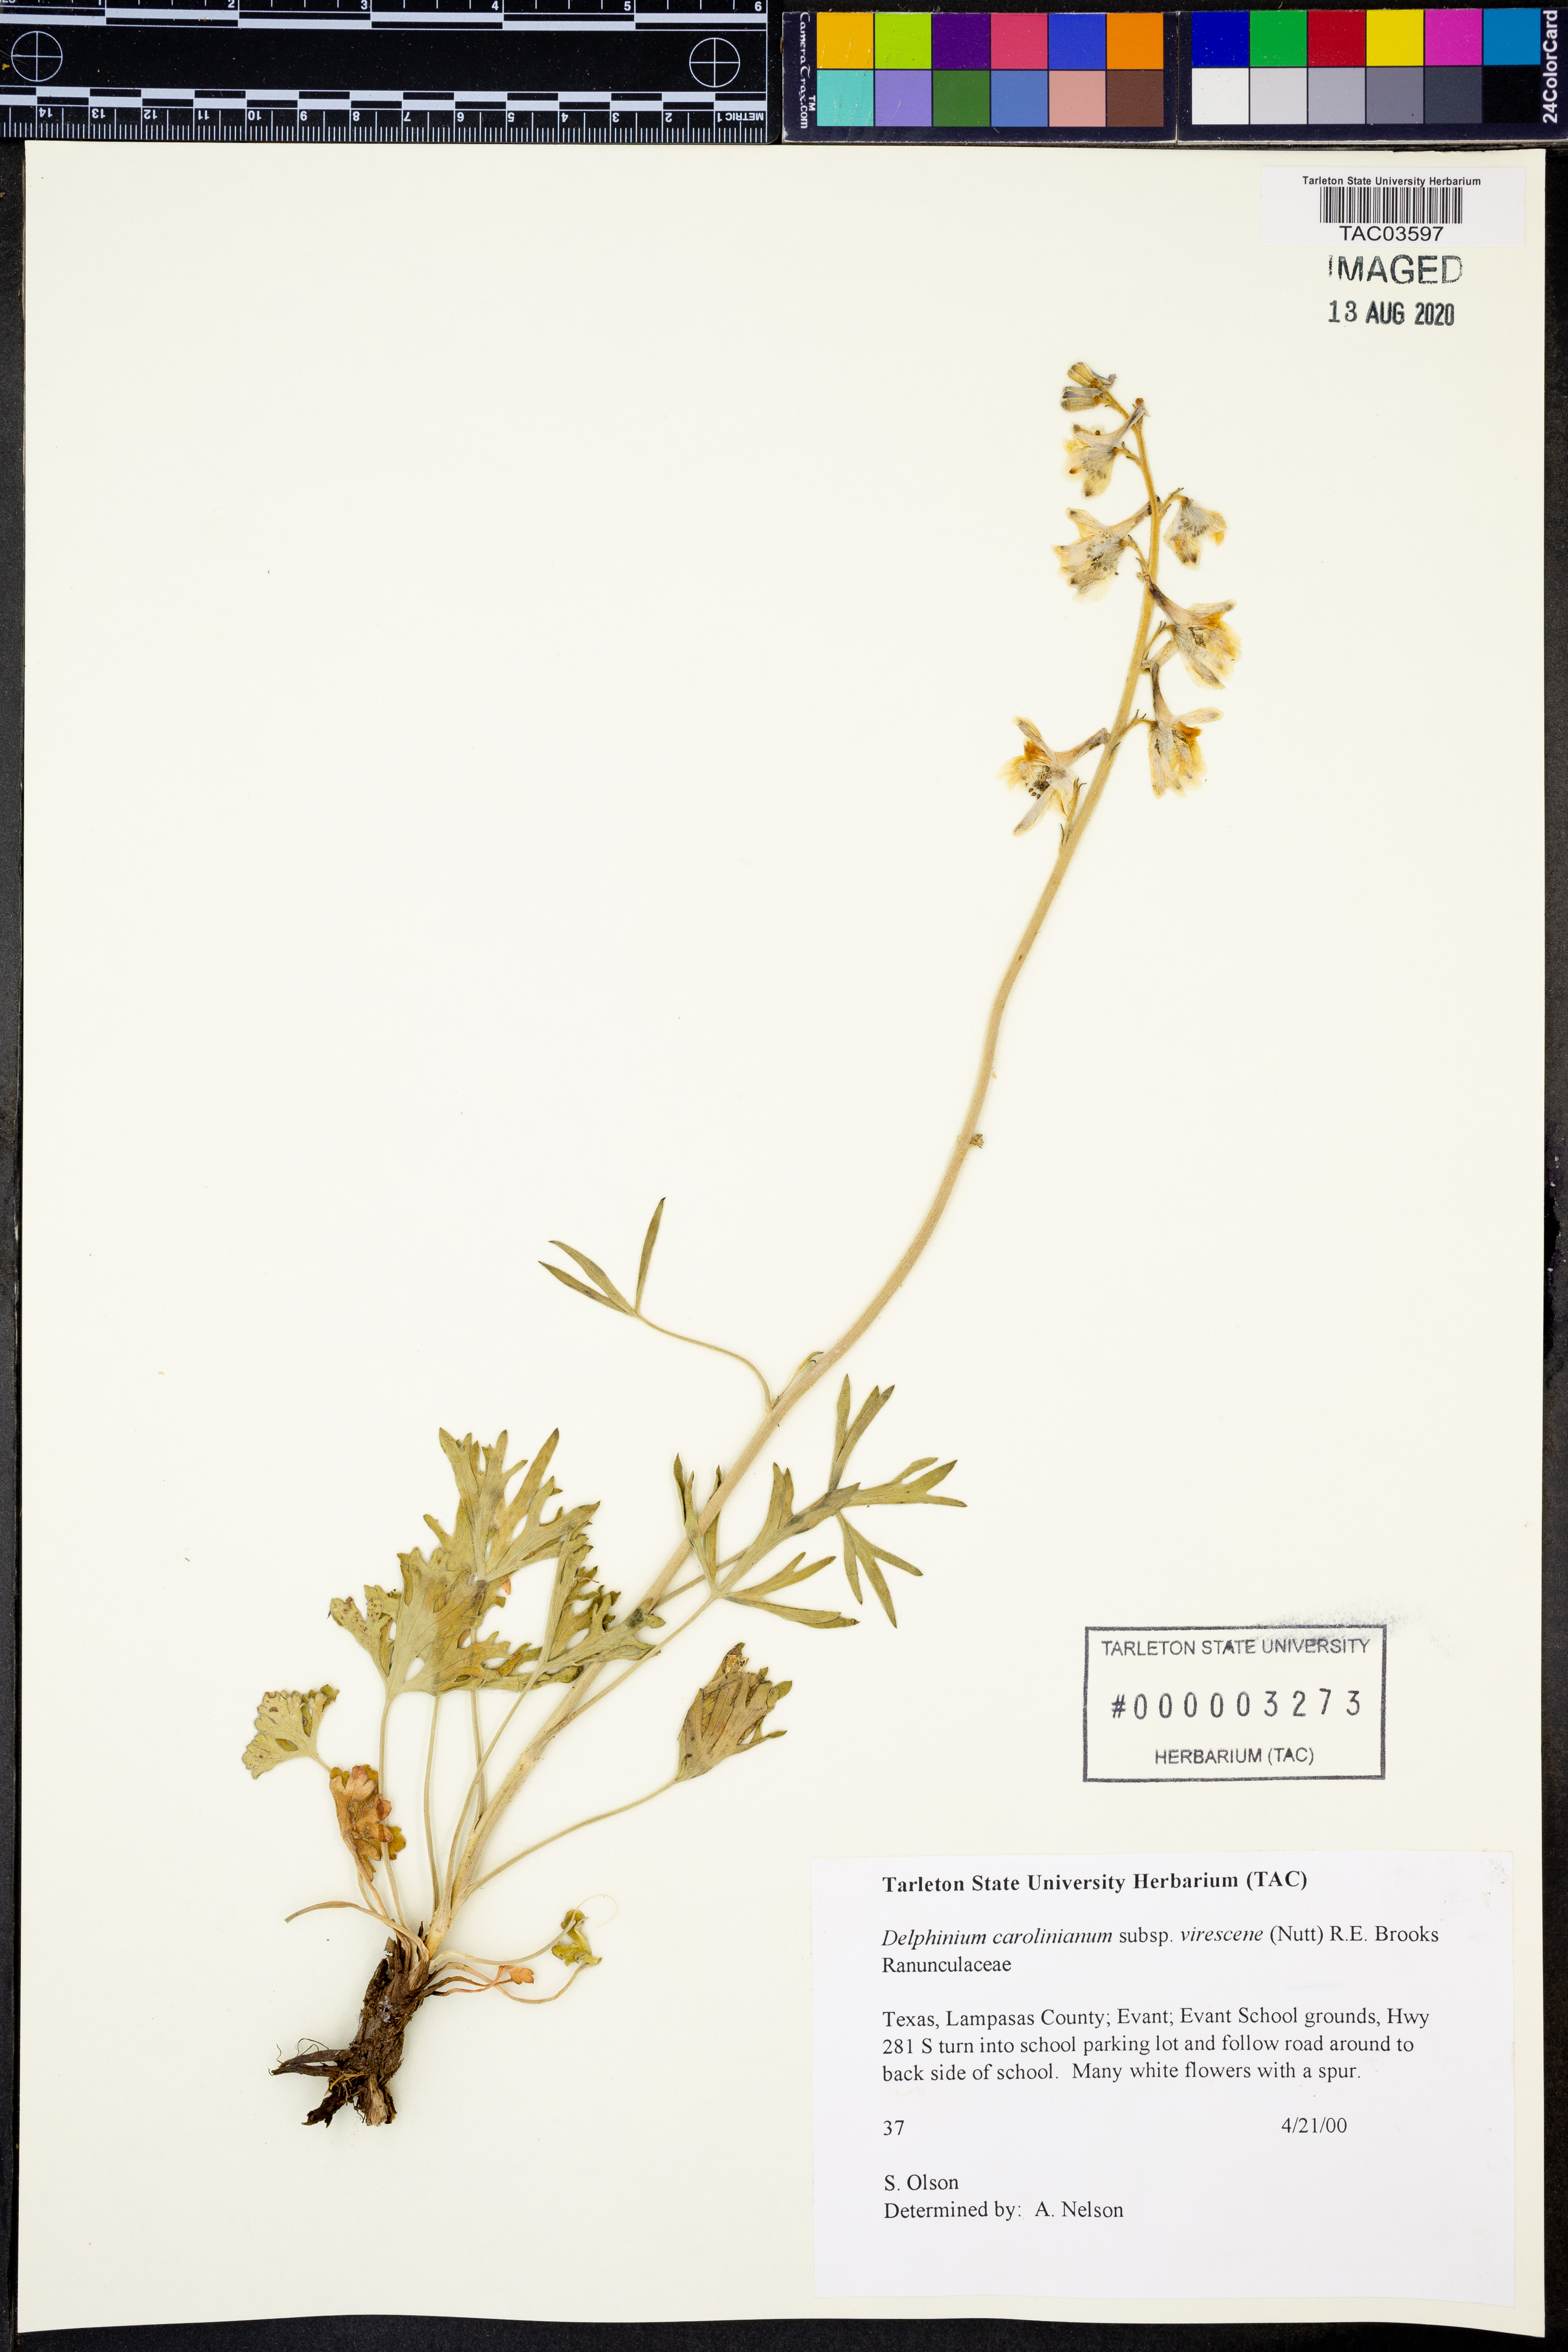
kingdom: Plantae
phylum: Tracheophyta
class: Magnoliopsida
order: Ranunculales
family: Ranunculaceae
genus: Delphinium
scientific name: Delphinium carolinianum
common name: Carolina larkspur
